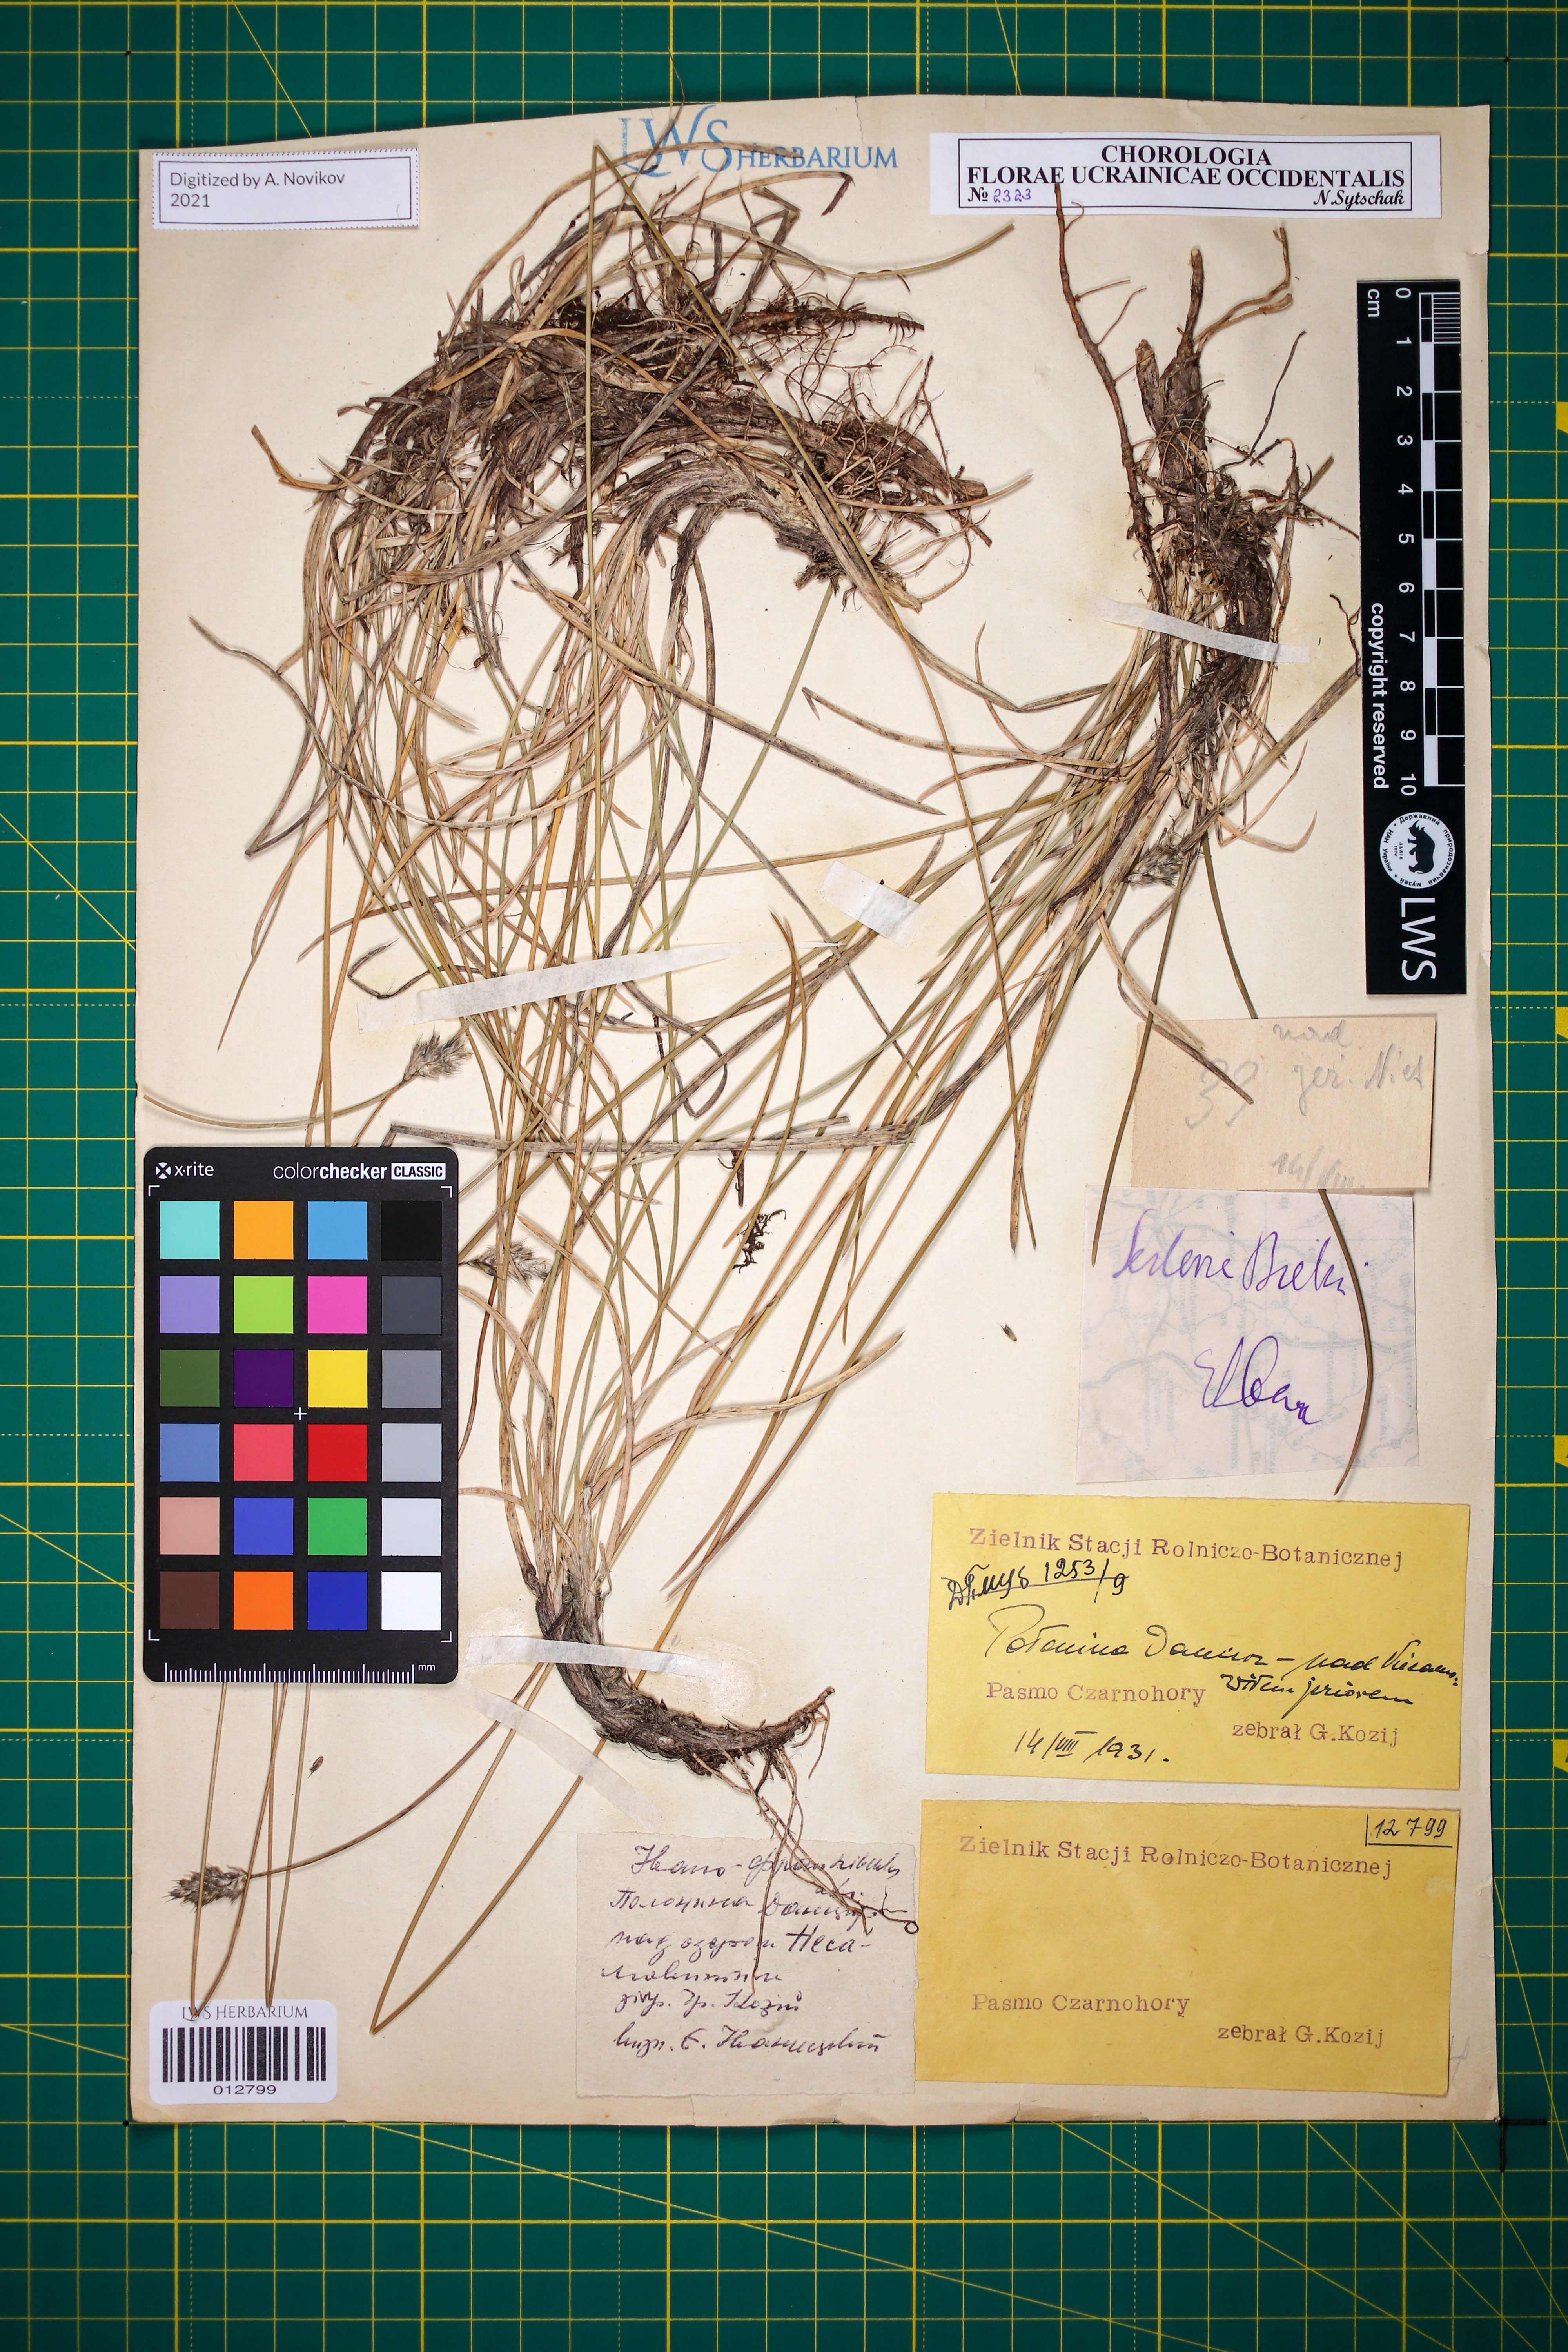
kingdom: Plantae
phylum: Tracheophyta
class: Liliopsida
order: Poales
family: Poaceae
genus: Sesleria
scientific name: Sesleria bielzii
